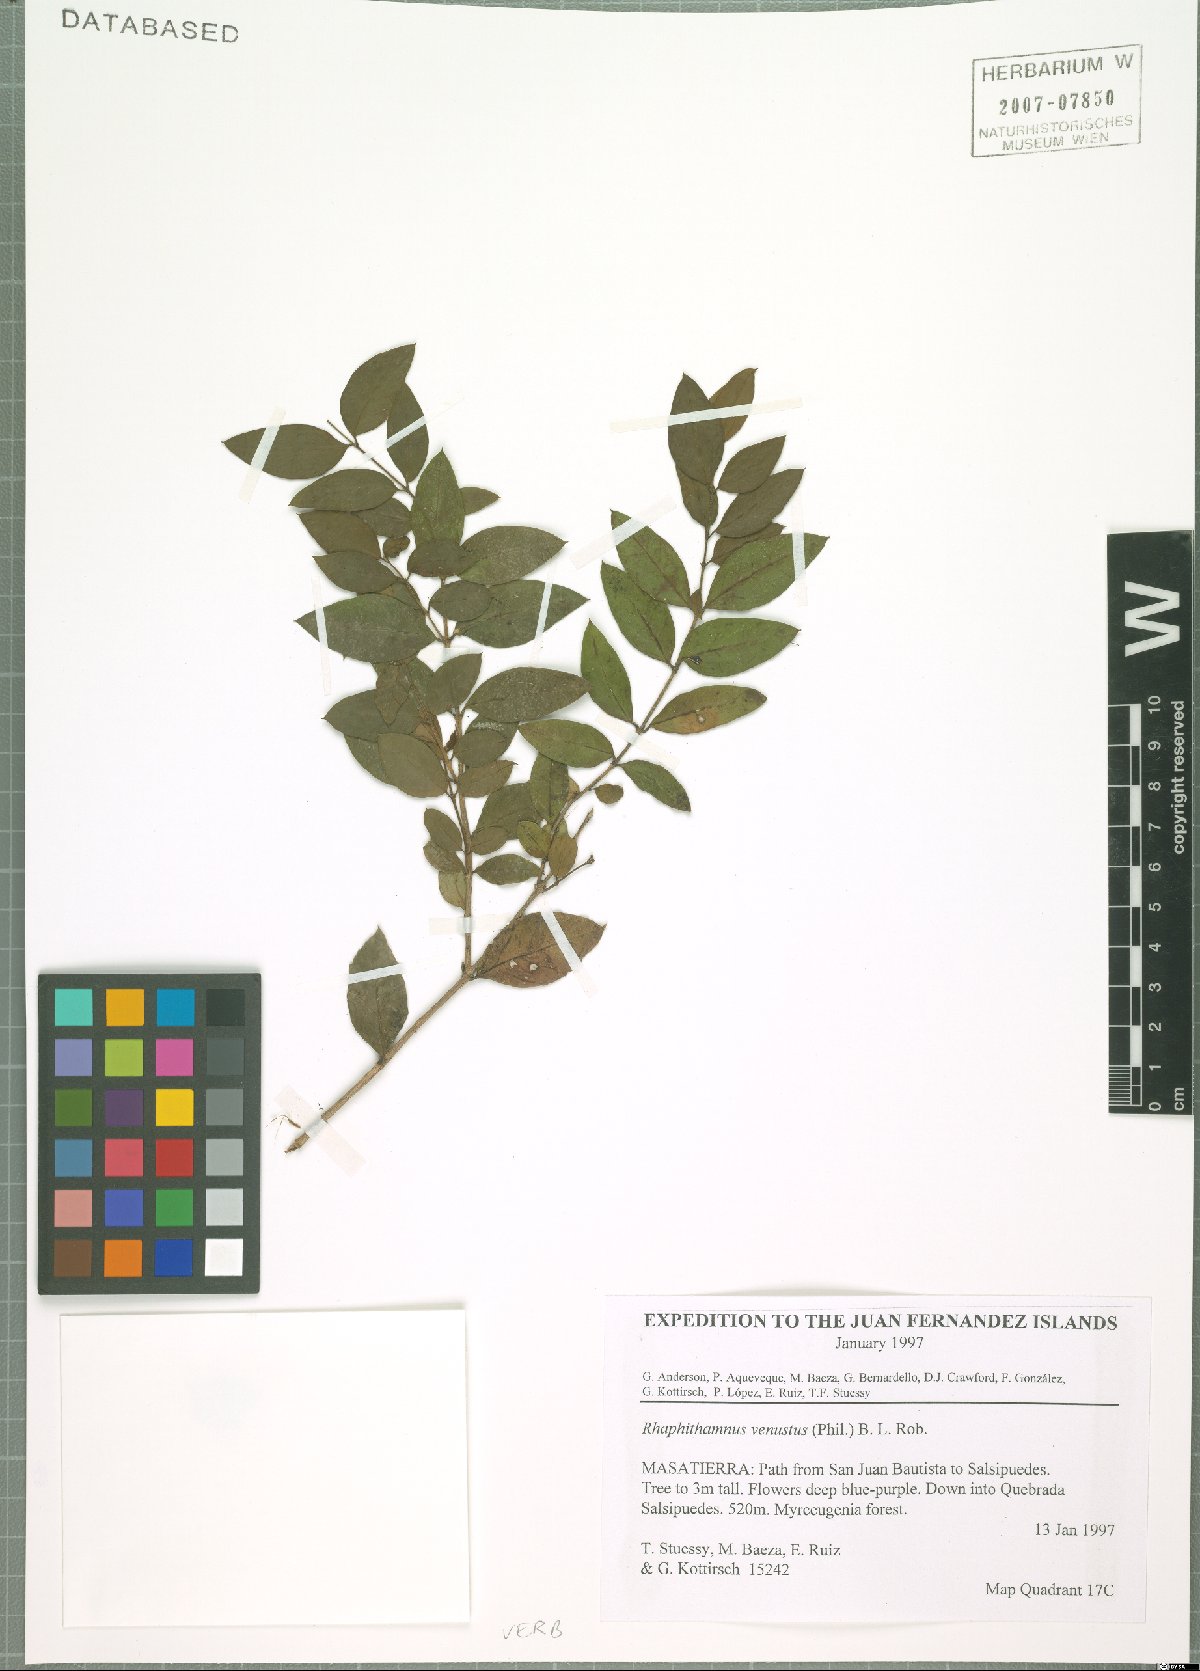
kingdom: Plantae
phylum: Tracheophyta
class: Magnoliopsida
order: Lamiales
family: Verbenaceae
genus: Rhaphithamnus
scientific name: Rhaphithamnus venustus
